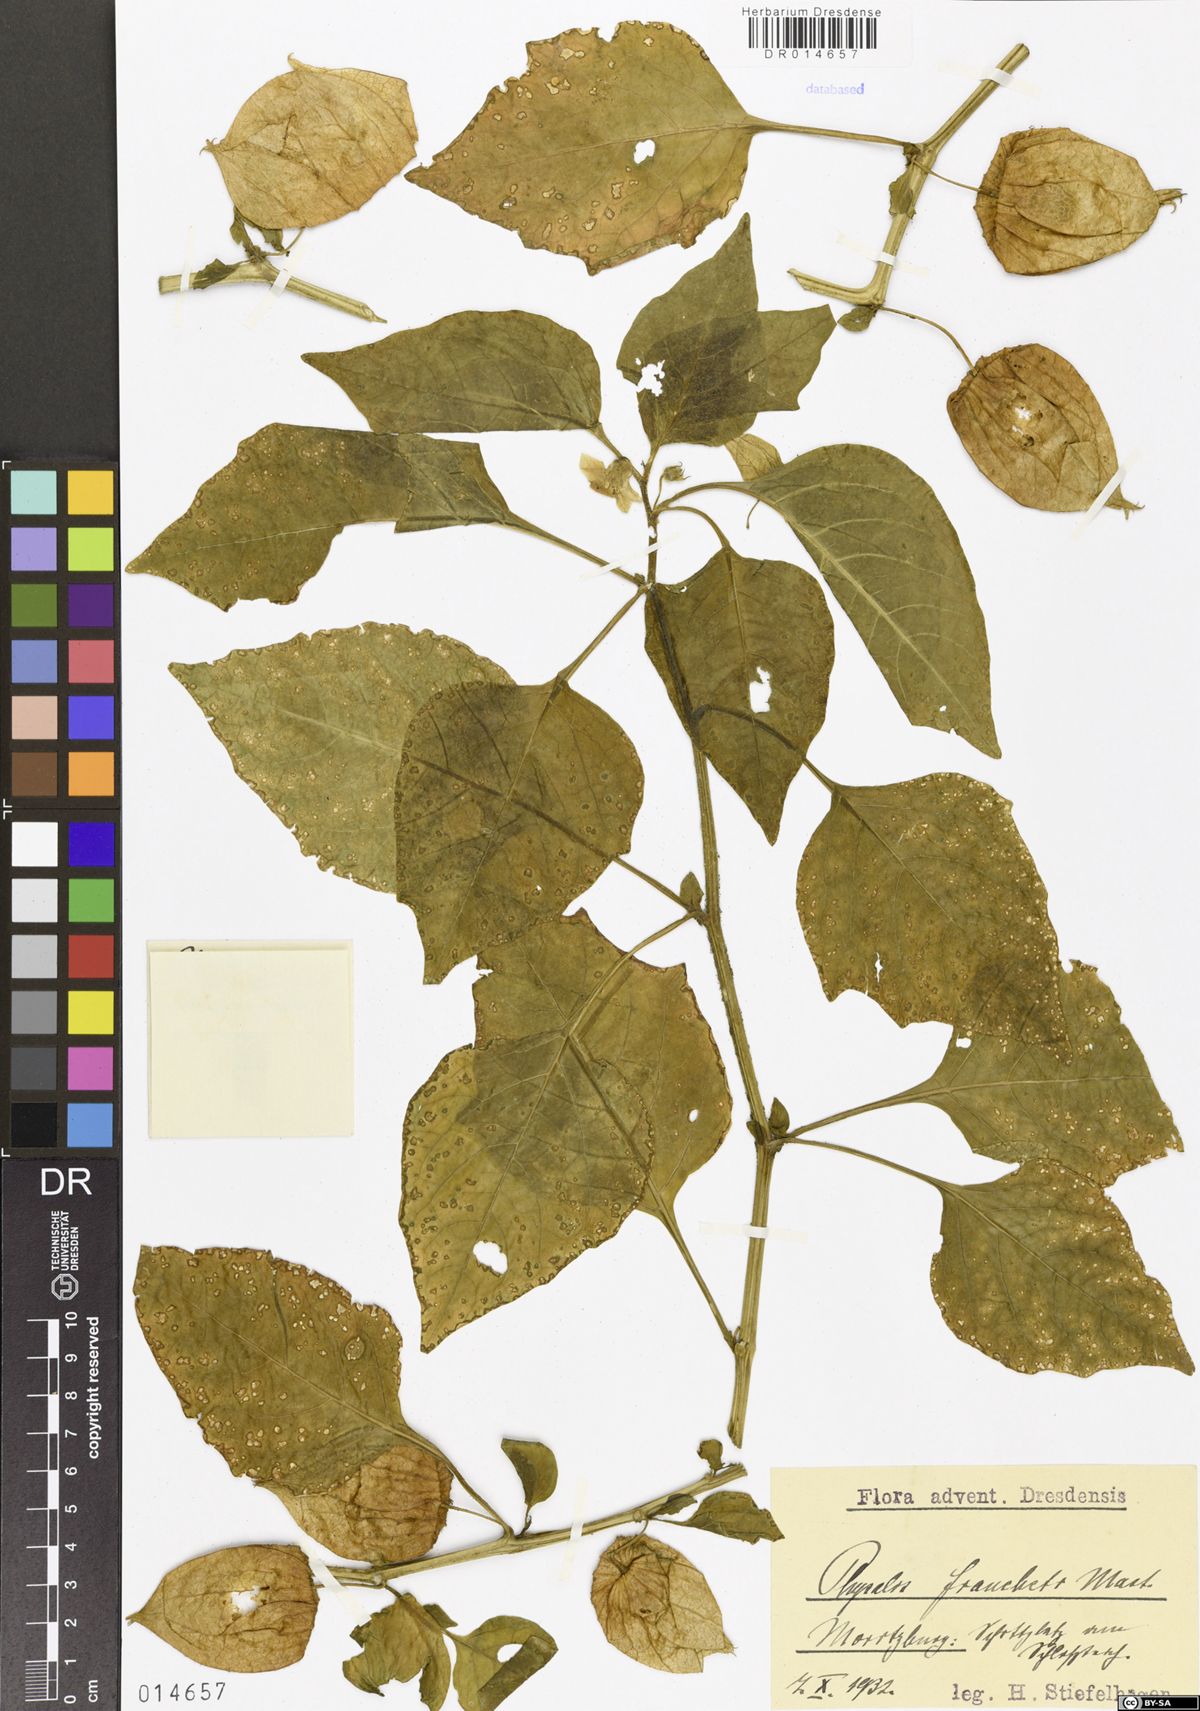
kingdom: Plantae
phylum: Tracheophyta
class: Magnoliopsida
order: Solanales
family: Solanaceae
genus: Alkekengi
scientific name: Alkekengi officinarum
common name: Japanese-lantern
